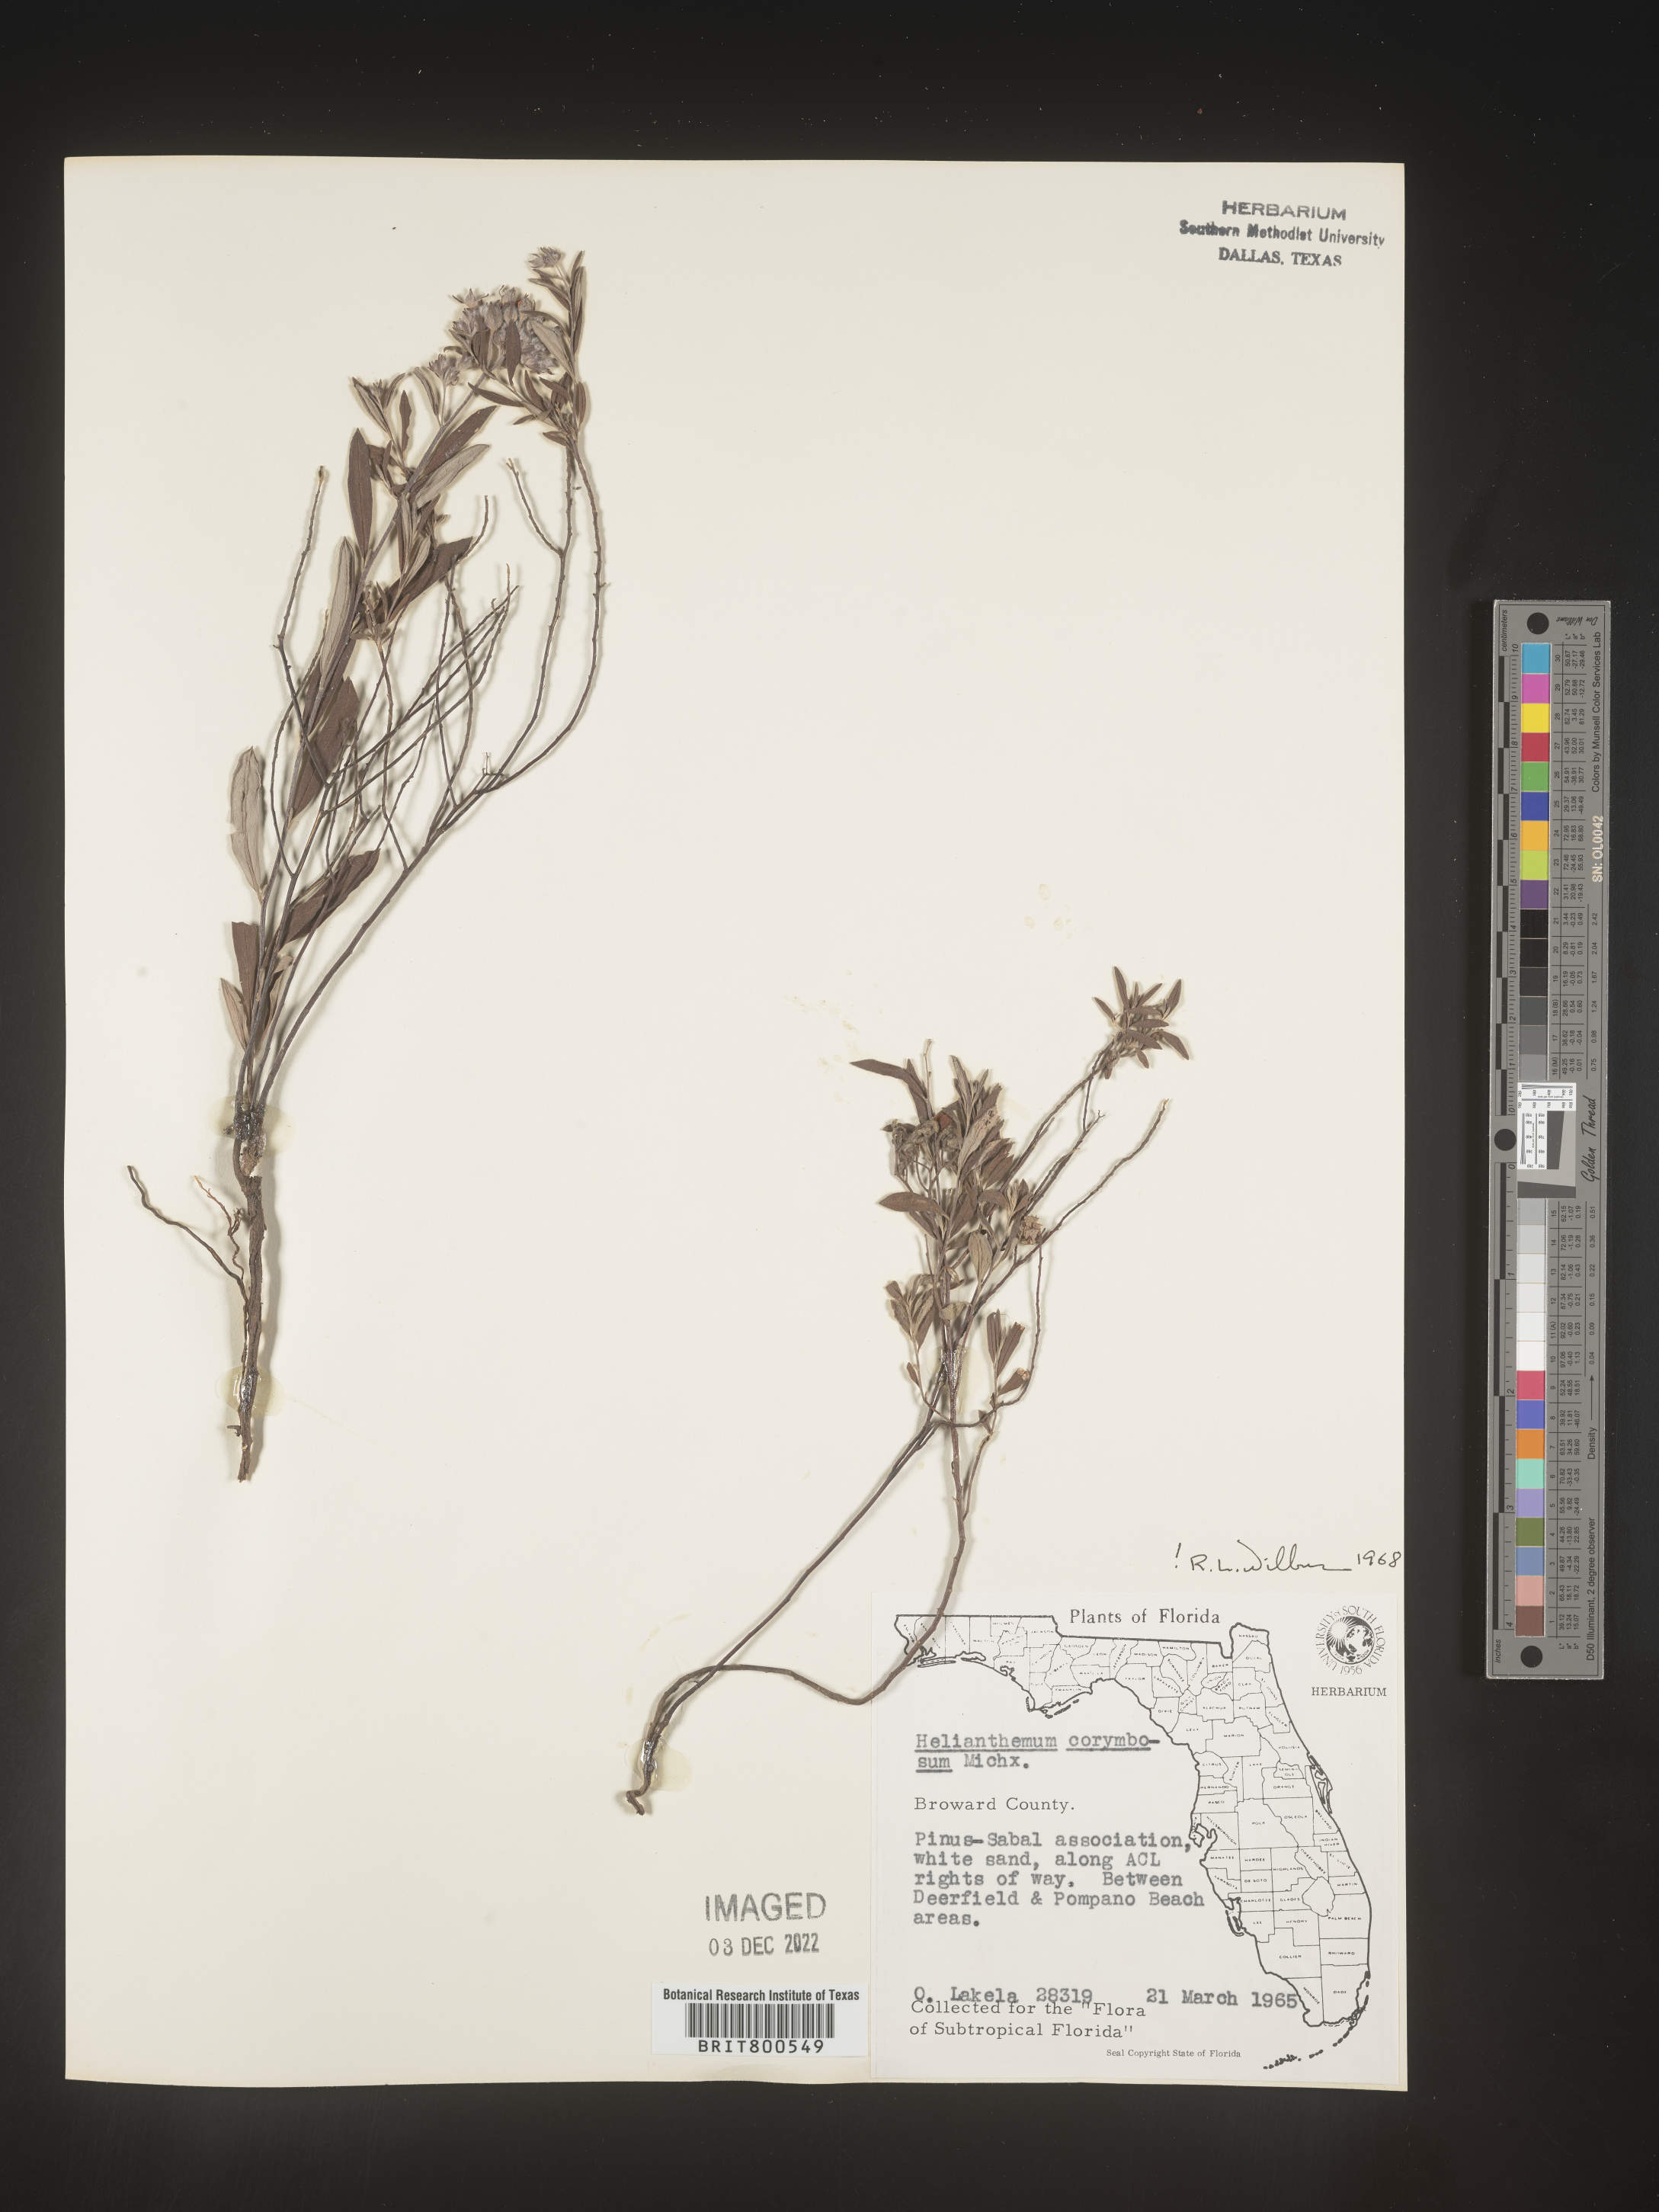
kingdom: Plantae
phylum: Tracheophyta
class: Magnoliopsida
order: Malvales
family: Cistaceae
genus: Crocanthemum
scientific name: Crocanthemum corymbosum
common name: Pinebarren sun-rose
